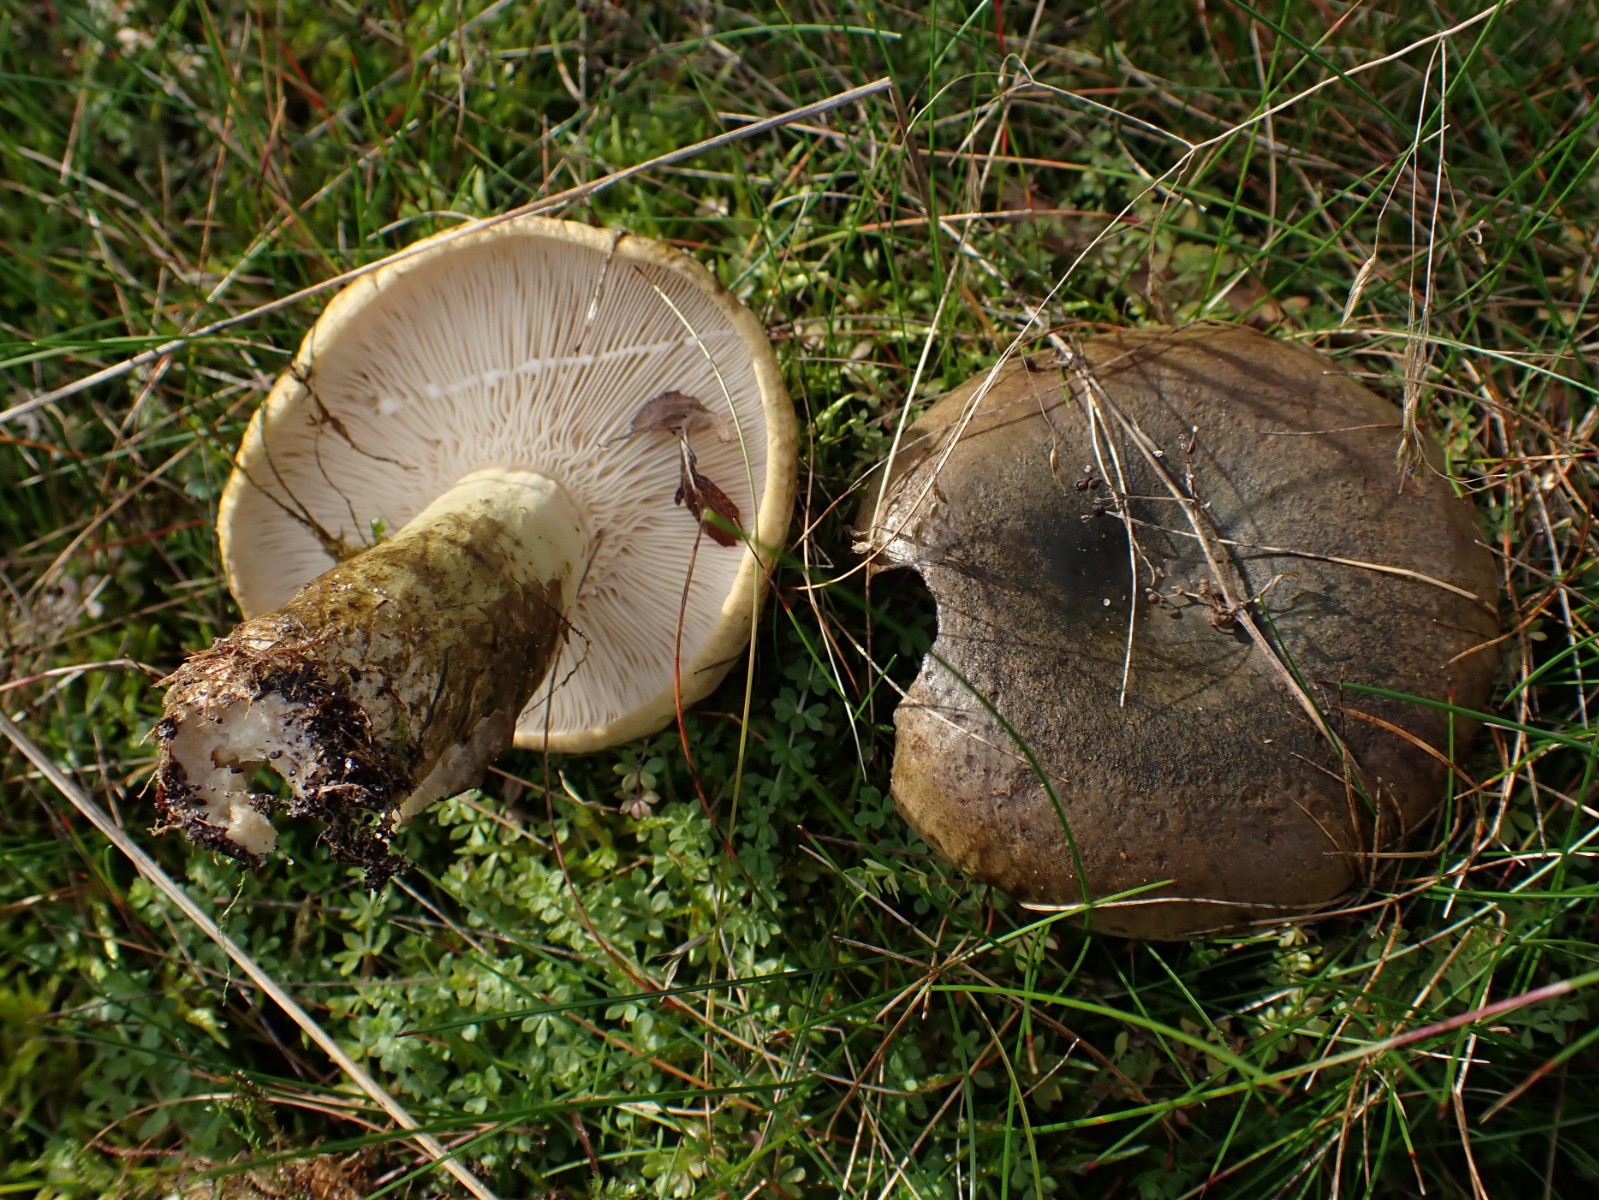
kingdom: Fungi
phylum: Basidiomycota
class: Agaricomycetes
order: Russulales
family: Russulaceae
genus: Lactarius
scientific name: Lactarius necator
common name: manddraber-mælkehat
